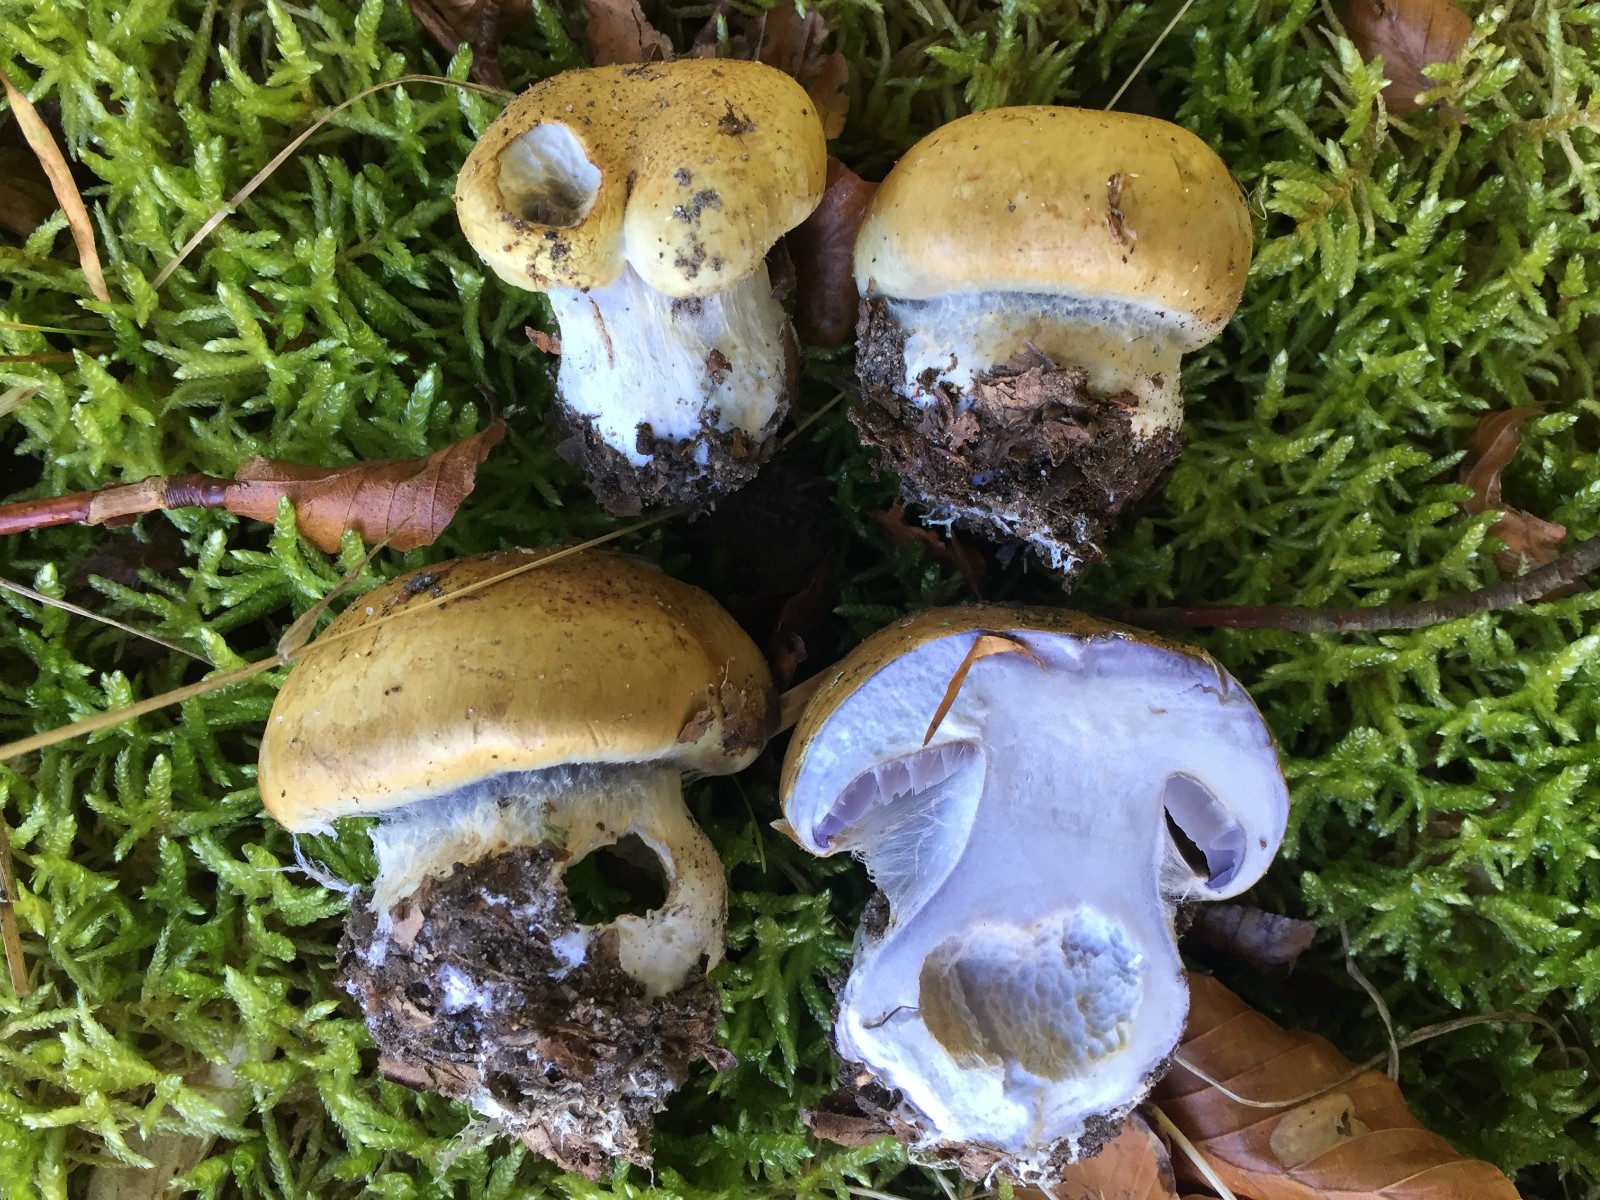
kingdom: Fungi
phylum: Basidiomycota
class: Agaricomycetes
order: Agaricales
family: Cortinariaceae
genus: Cortinarius
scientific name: Cortinarius anserinus
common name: bøge-slørhat
